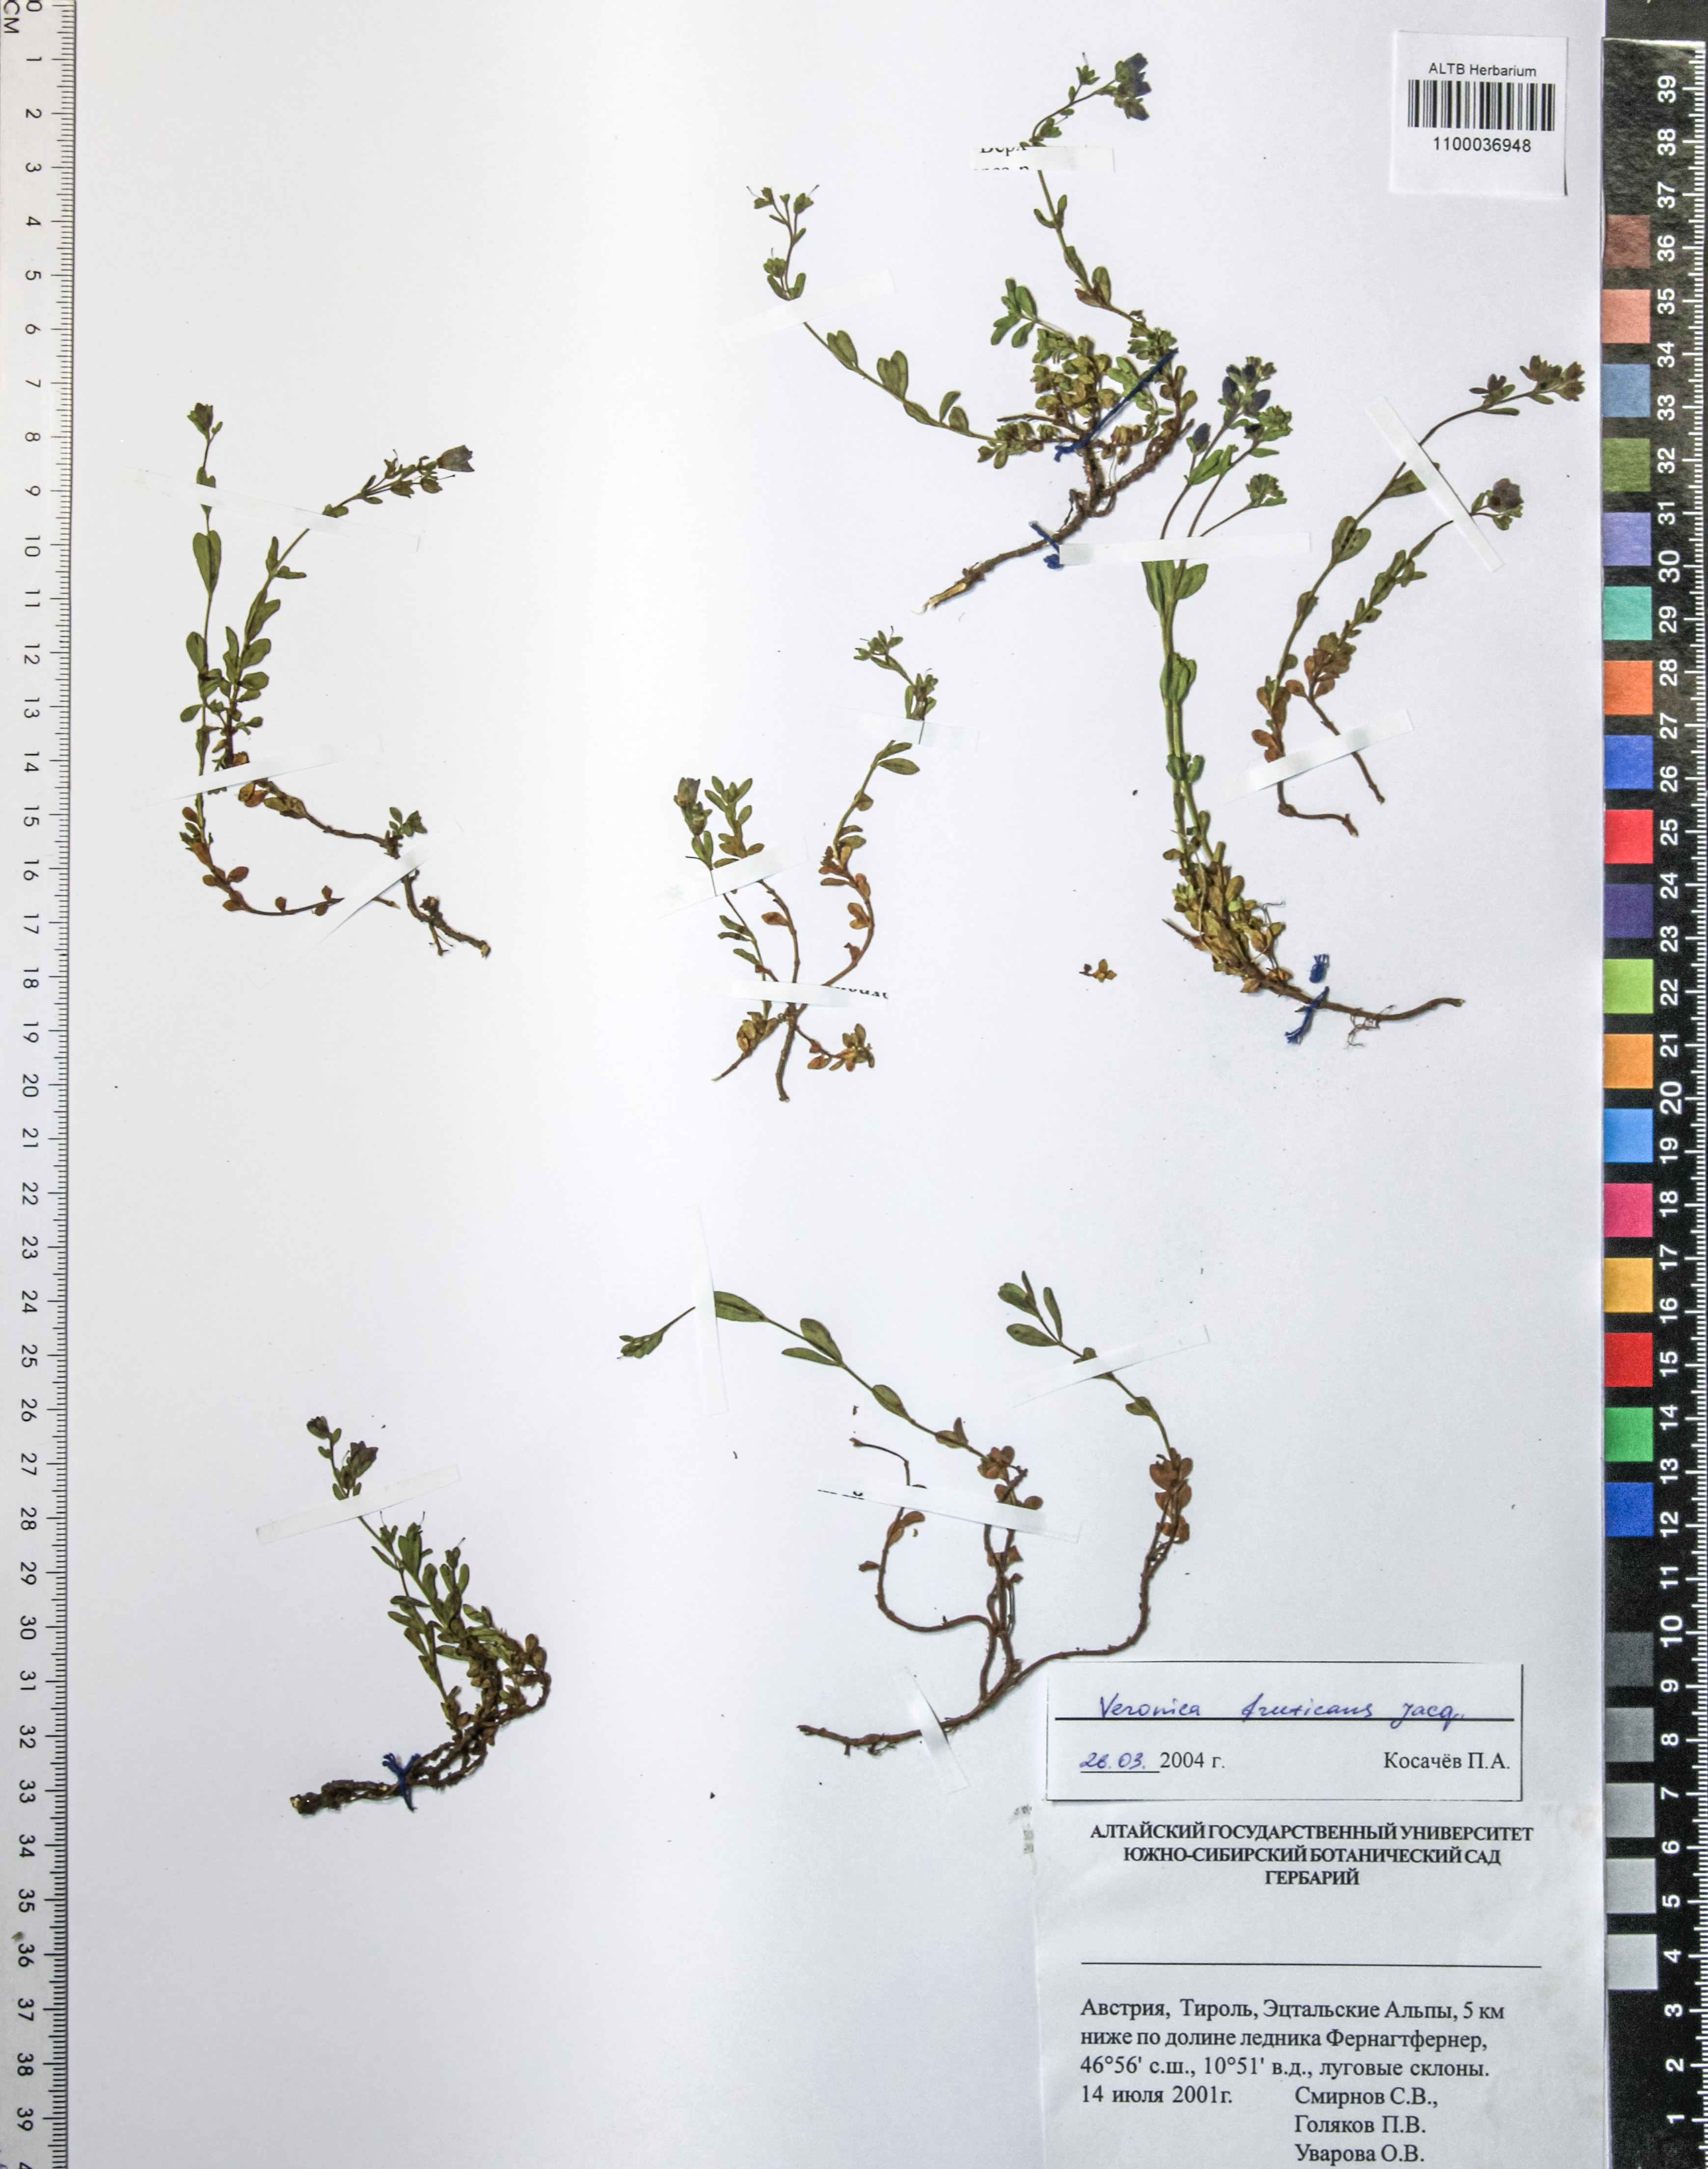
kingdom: Plantae
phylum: Tracheophyta
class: Magnoliopsida
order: Lamiales
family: Plantaginaceae
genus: Veronica
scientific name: Veronica fruticans
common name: Rock speedwell
